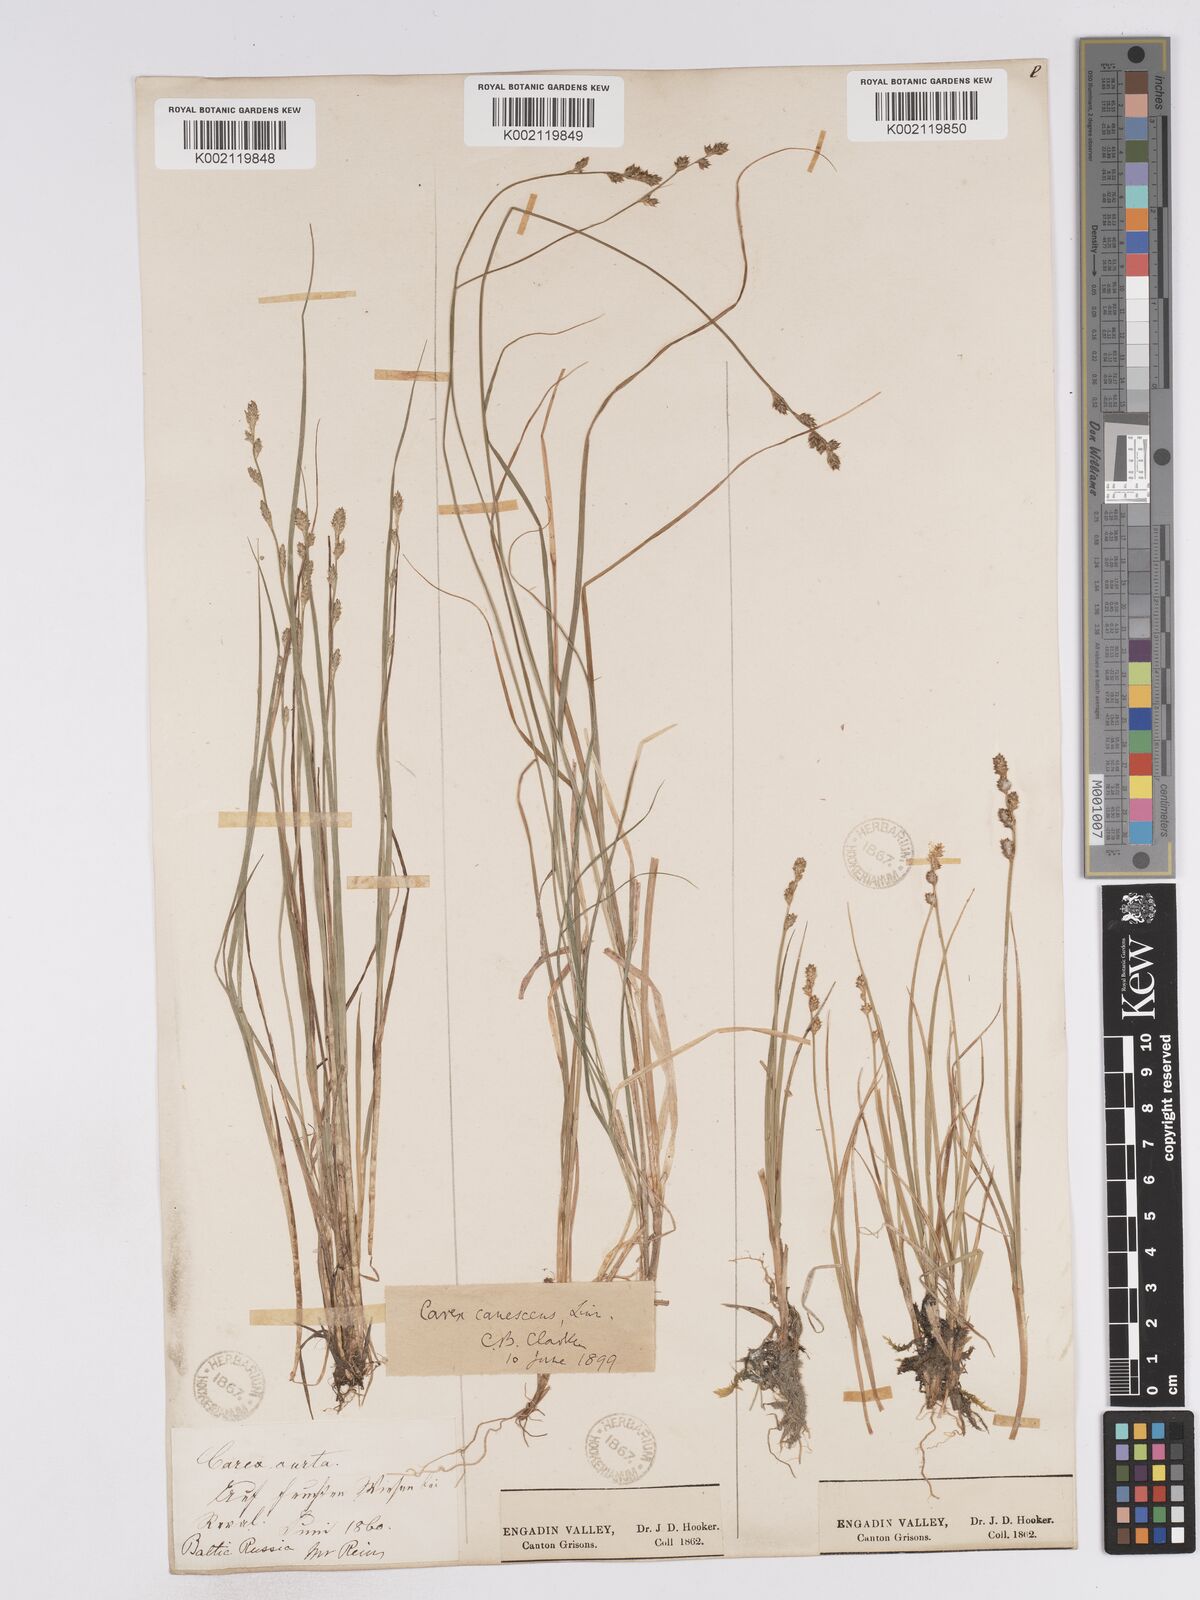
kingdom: Plantae
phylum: Tracheophyta
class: Liliopsida
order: Poales
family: Cyperaceae
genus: Carex
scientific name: Carex curta
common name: White sedge
